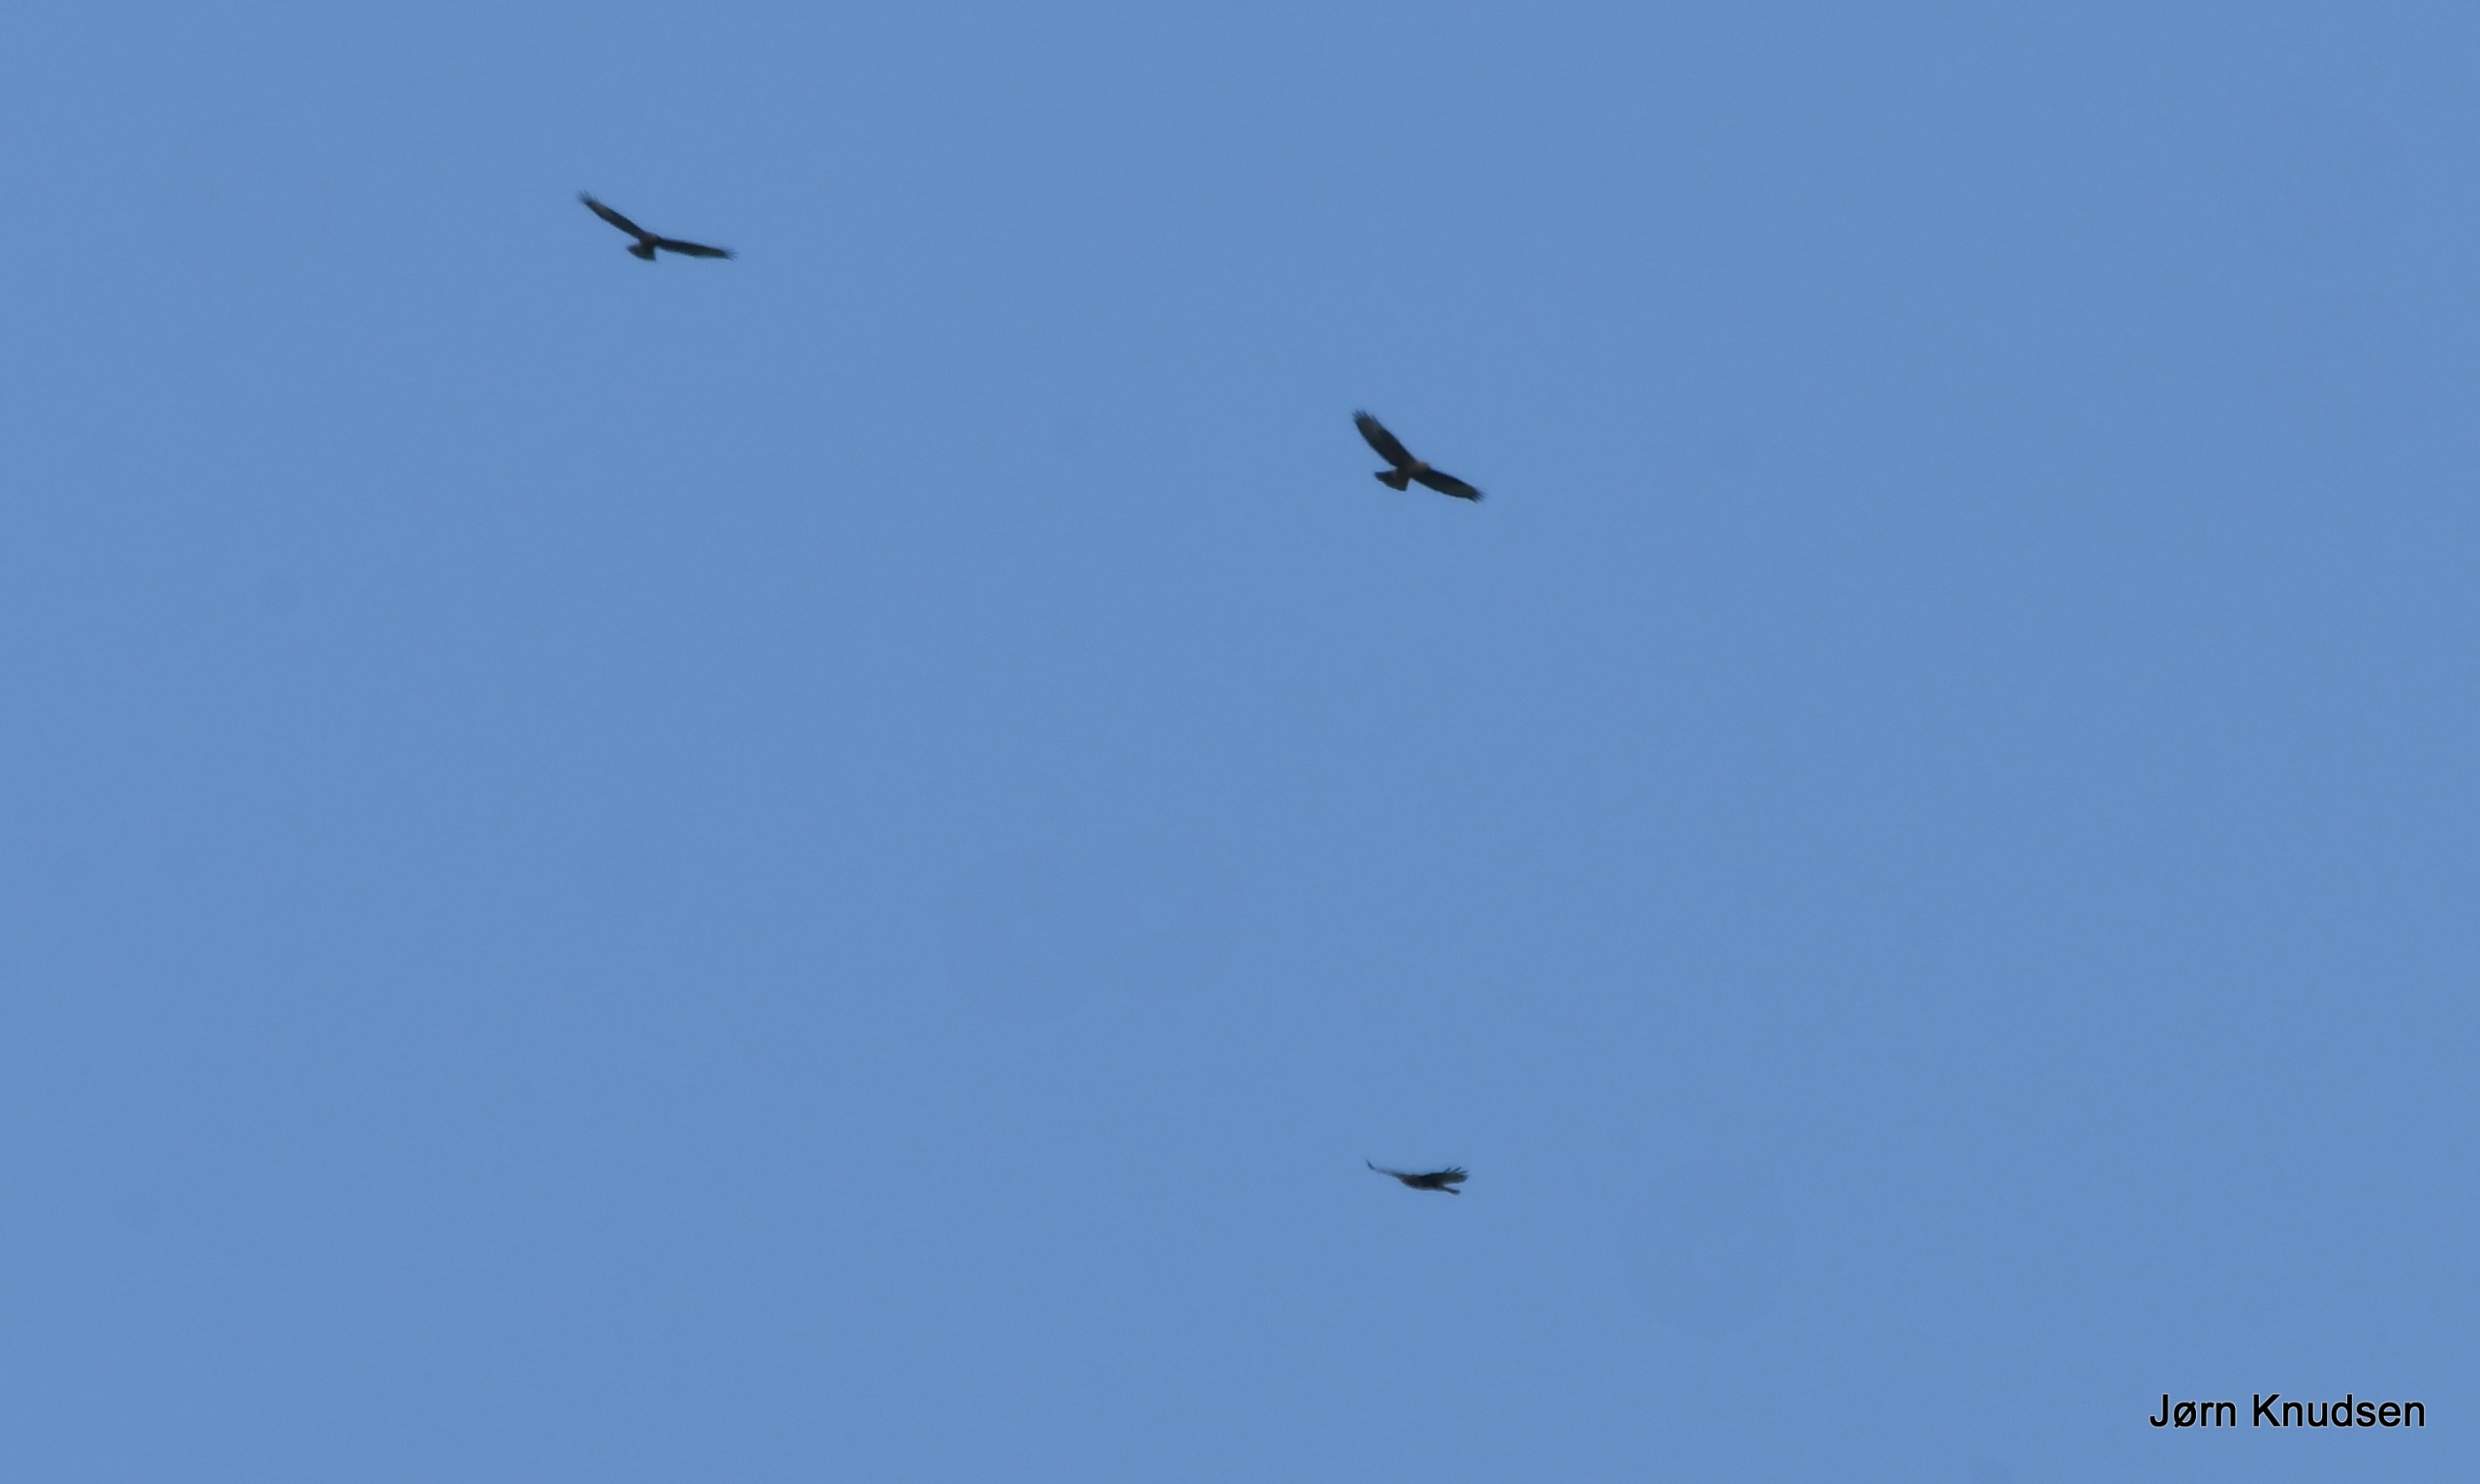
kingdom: Animalia
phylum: Chordata
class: Aves
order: Accipitriformes
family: Accipitridae
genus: Buteo
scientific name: Buteo buteo
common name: Musvåge
